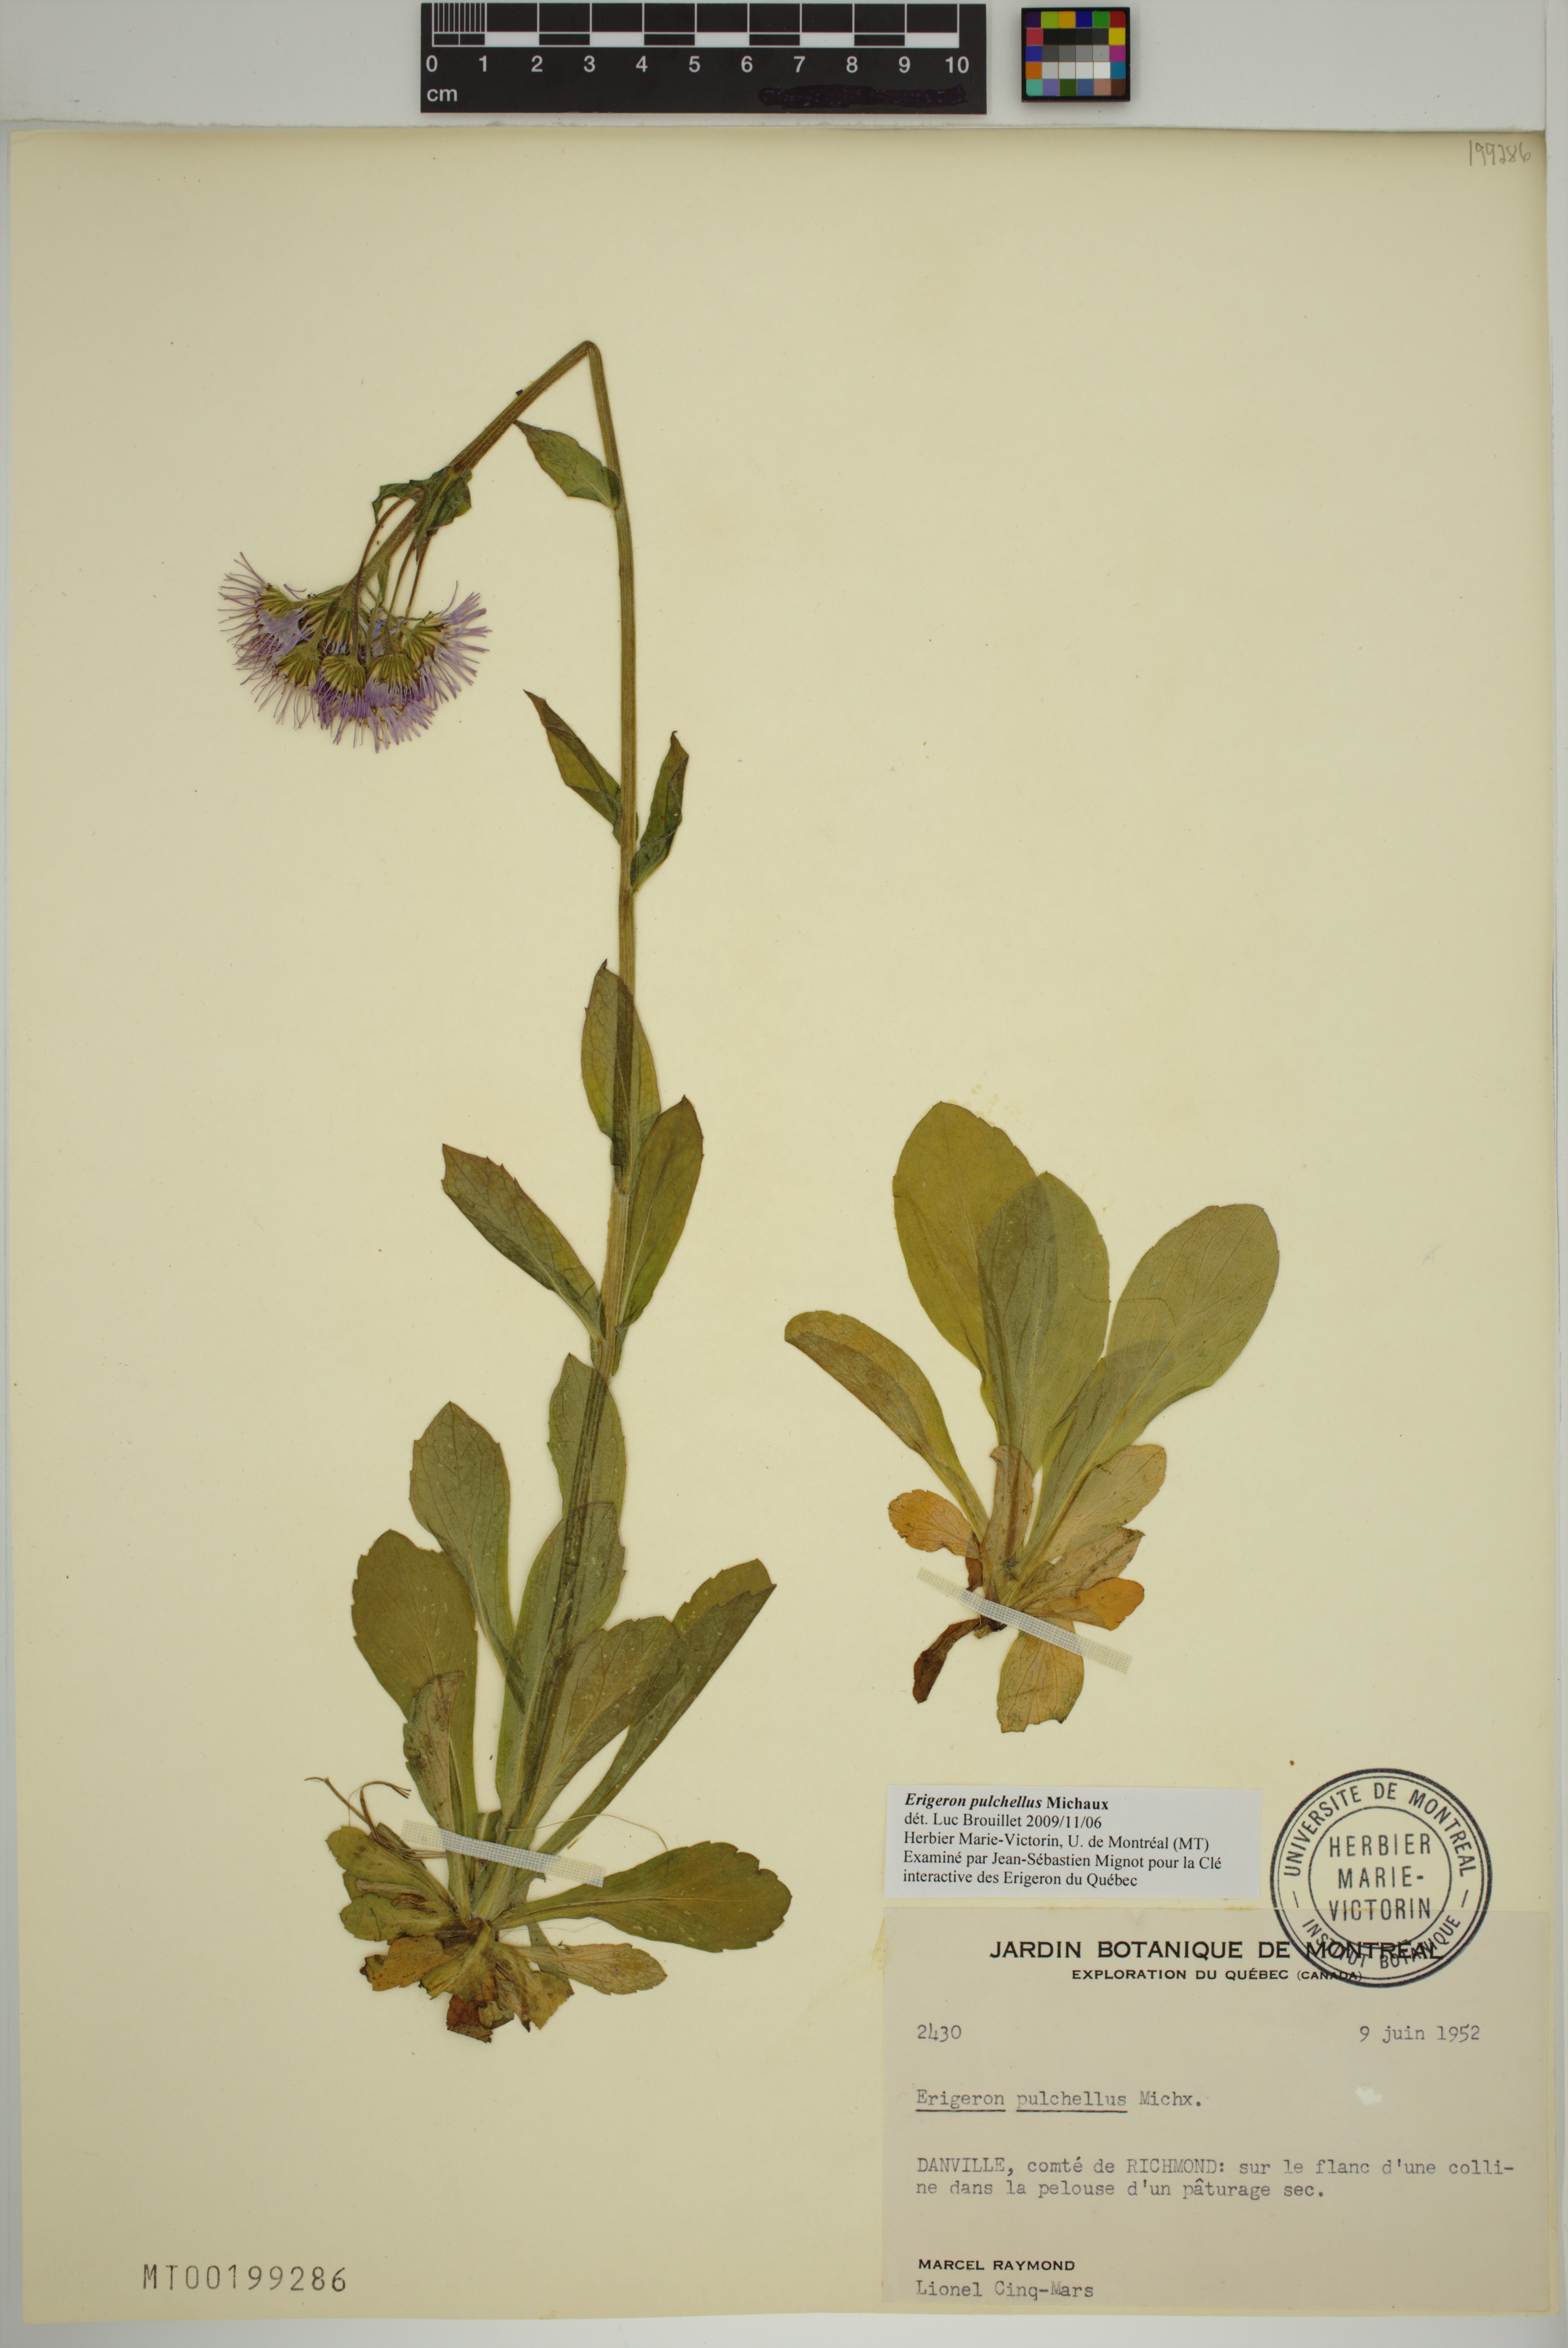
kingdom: Plantae
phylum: Tracheophyta
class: Magnoliopsida
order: Asterales
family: Asteraceae
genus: Erigeron
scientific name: Erigeron pulchellus
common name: Hairy fleabane
